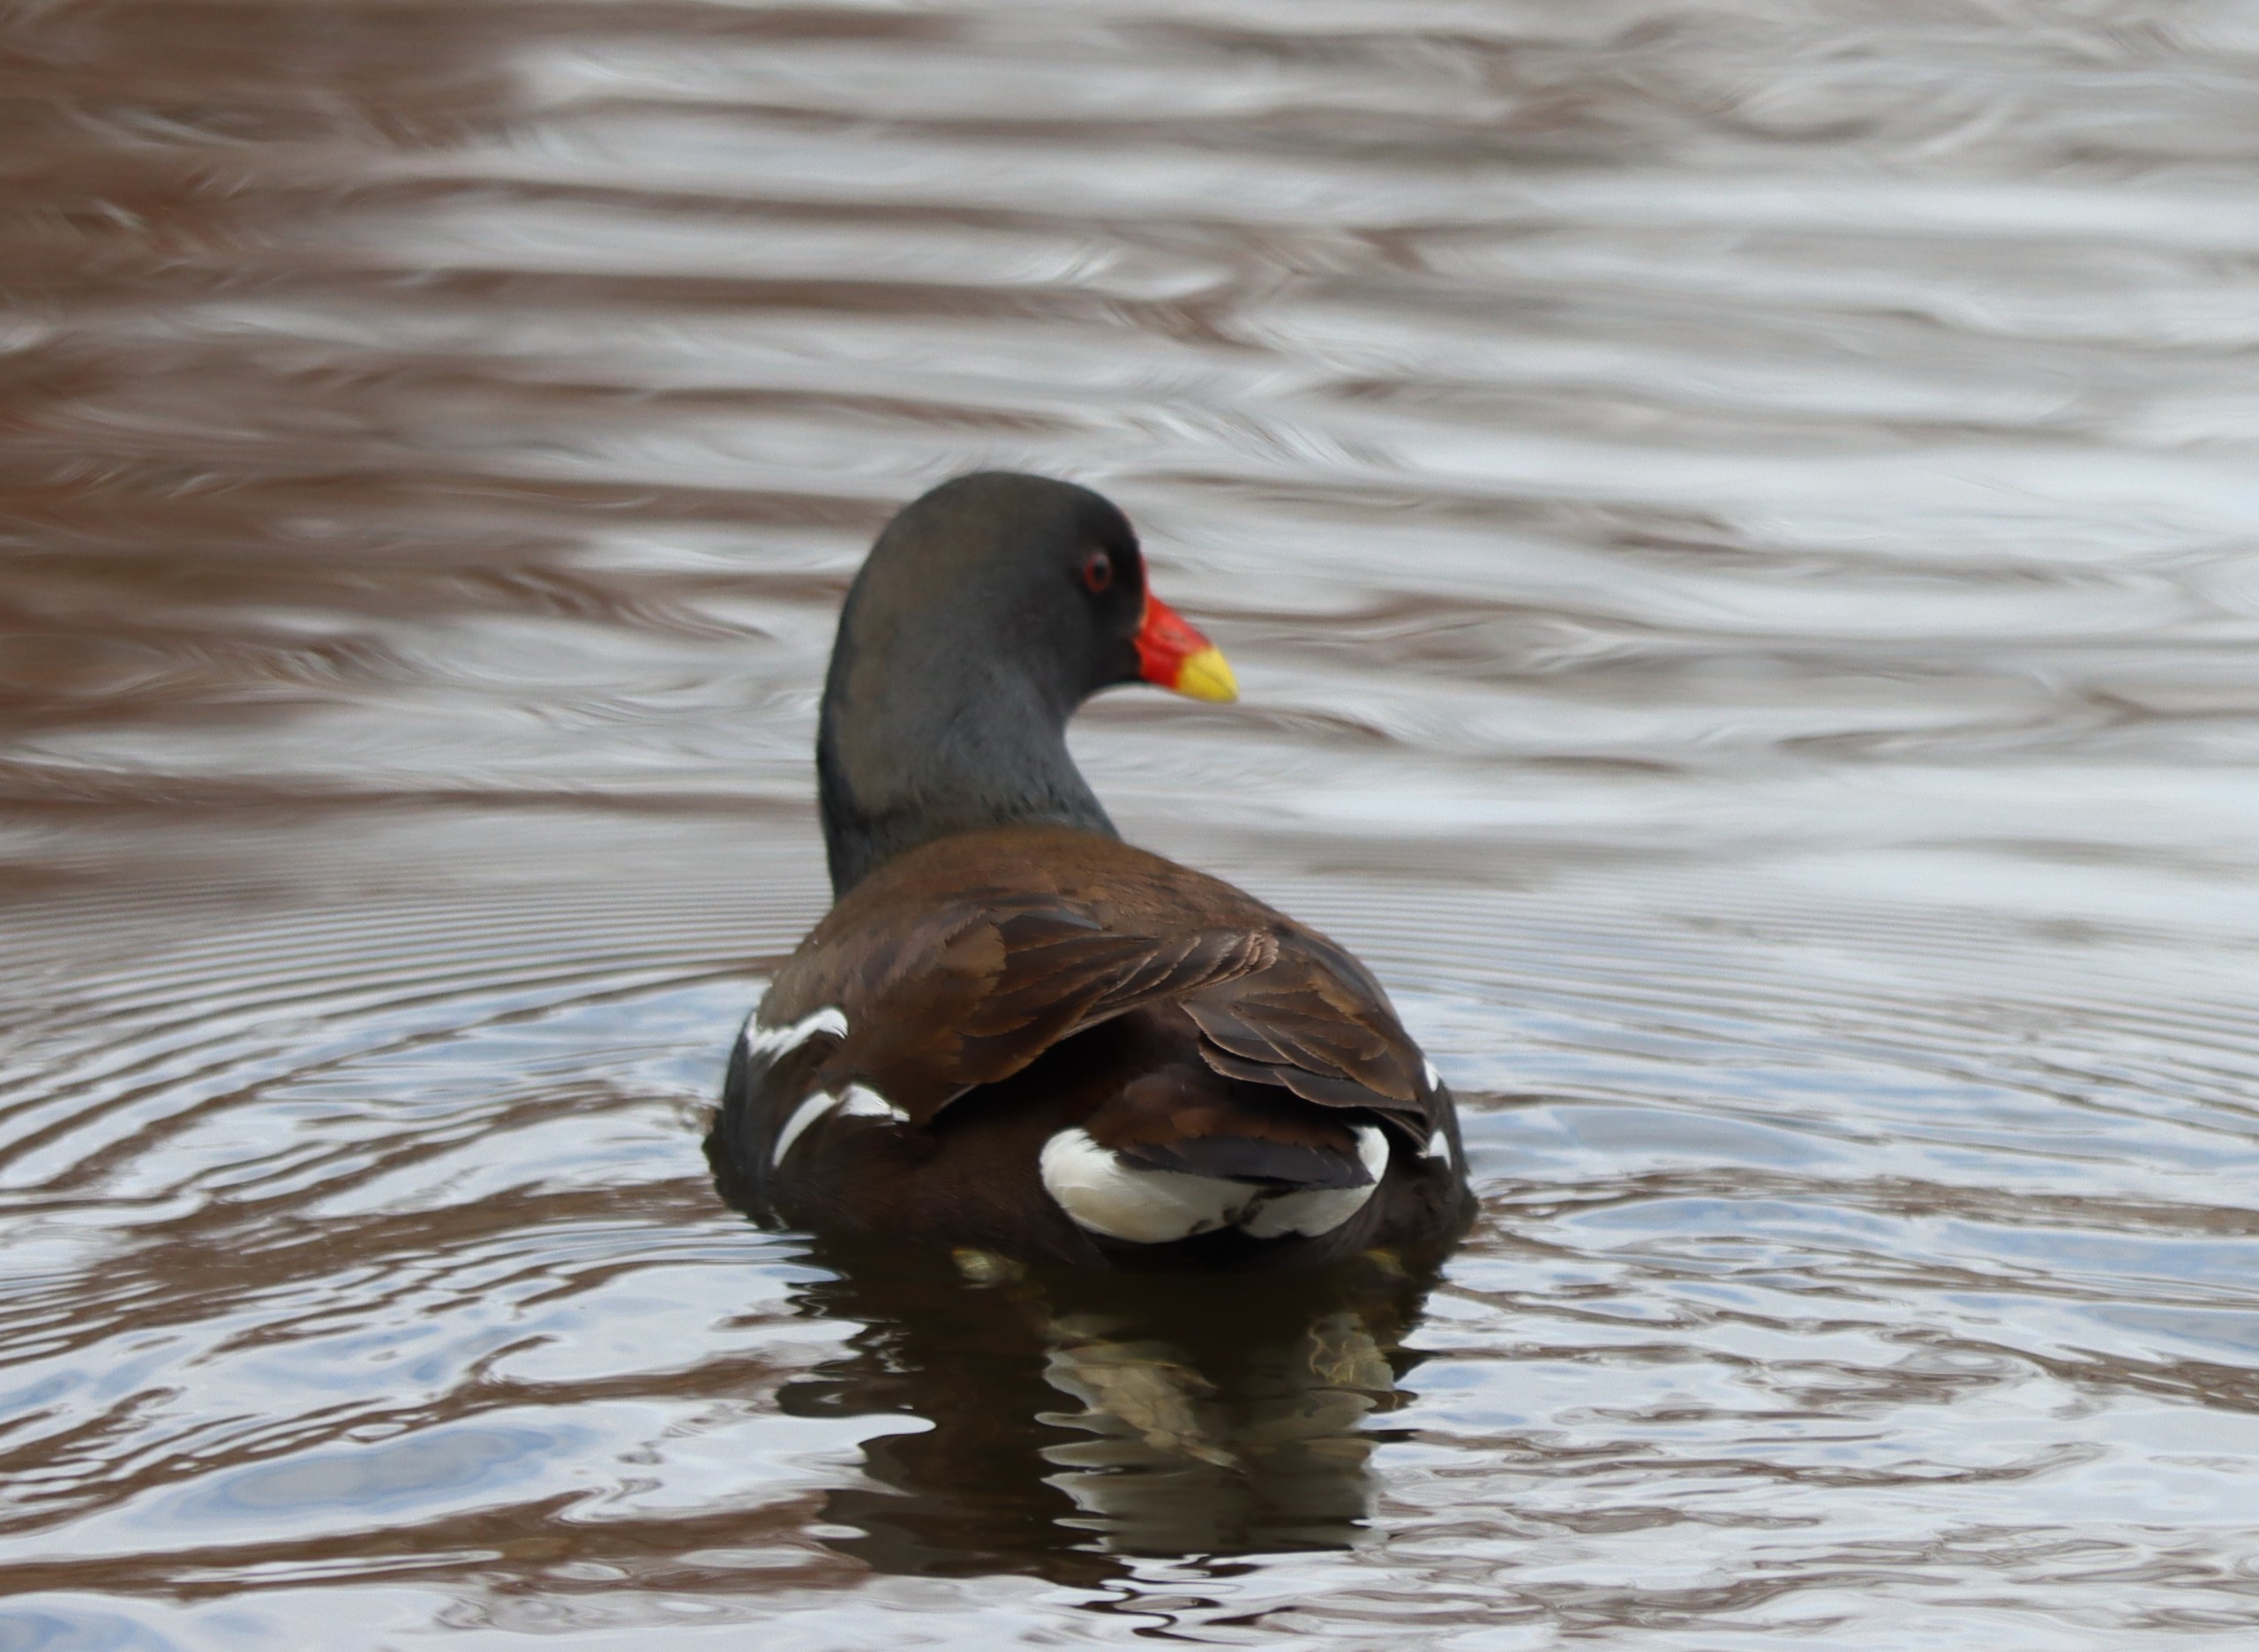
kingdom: Animalia
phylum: Chordata
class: Aves
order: Gruiformes
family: Rallidae
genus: Gallinula
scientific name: Gallinula chloropus
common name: Grønbenet rørhøne
